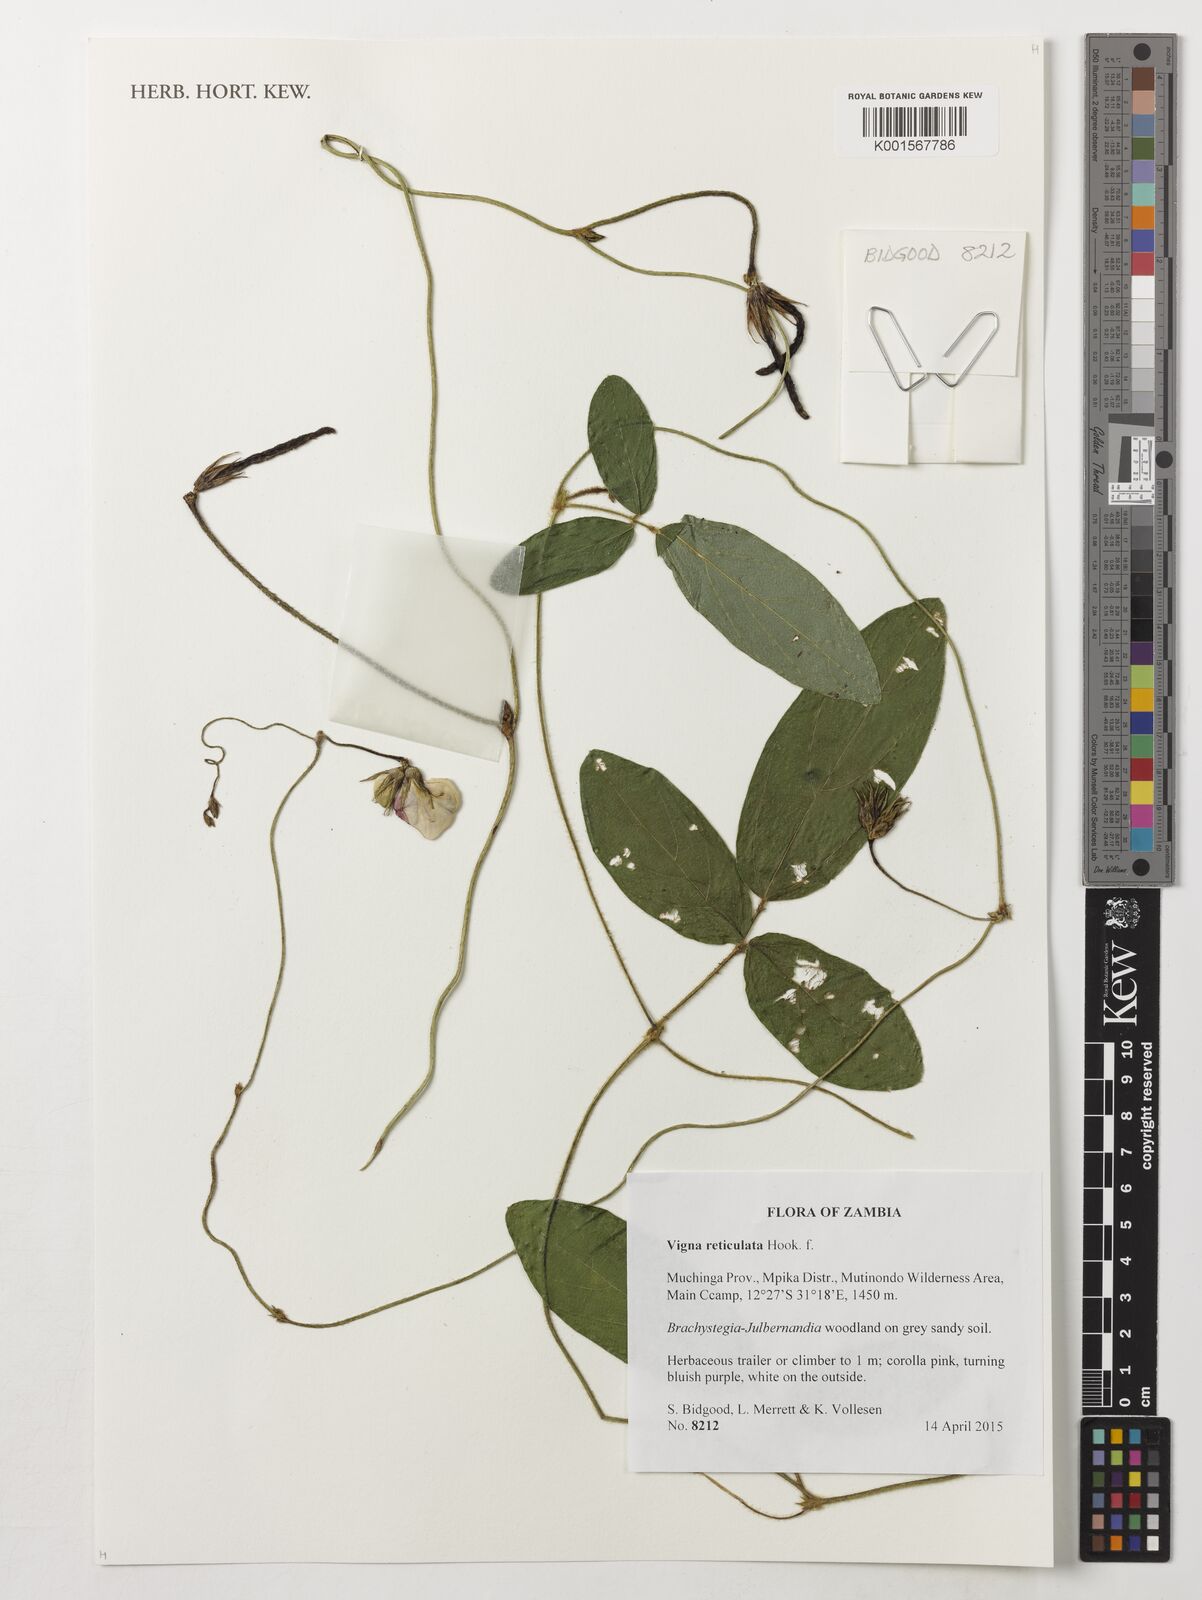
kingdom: Plantae
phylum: Tracheophyta
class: Magnoliopsida
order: Fabales
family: Fabaceae
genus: Vigna
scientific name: Vigna reticulata
